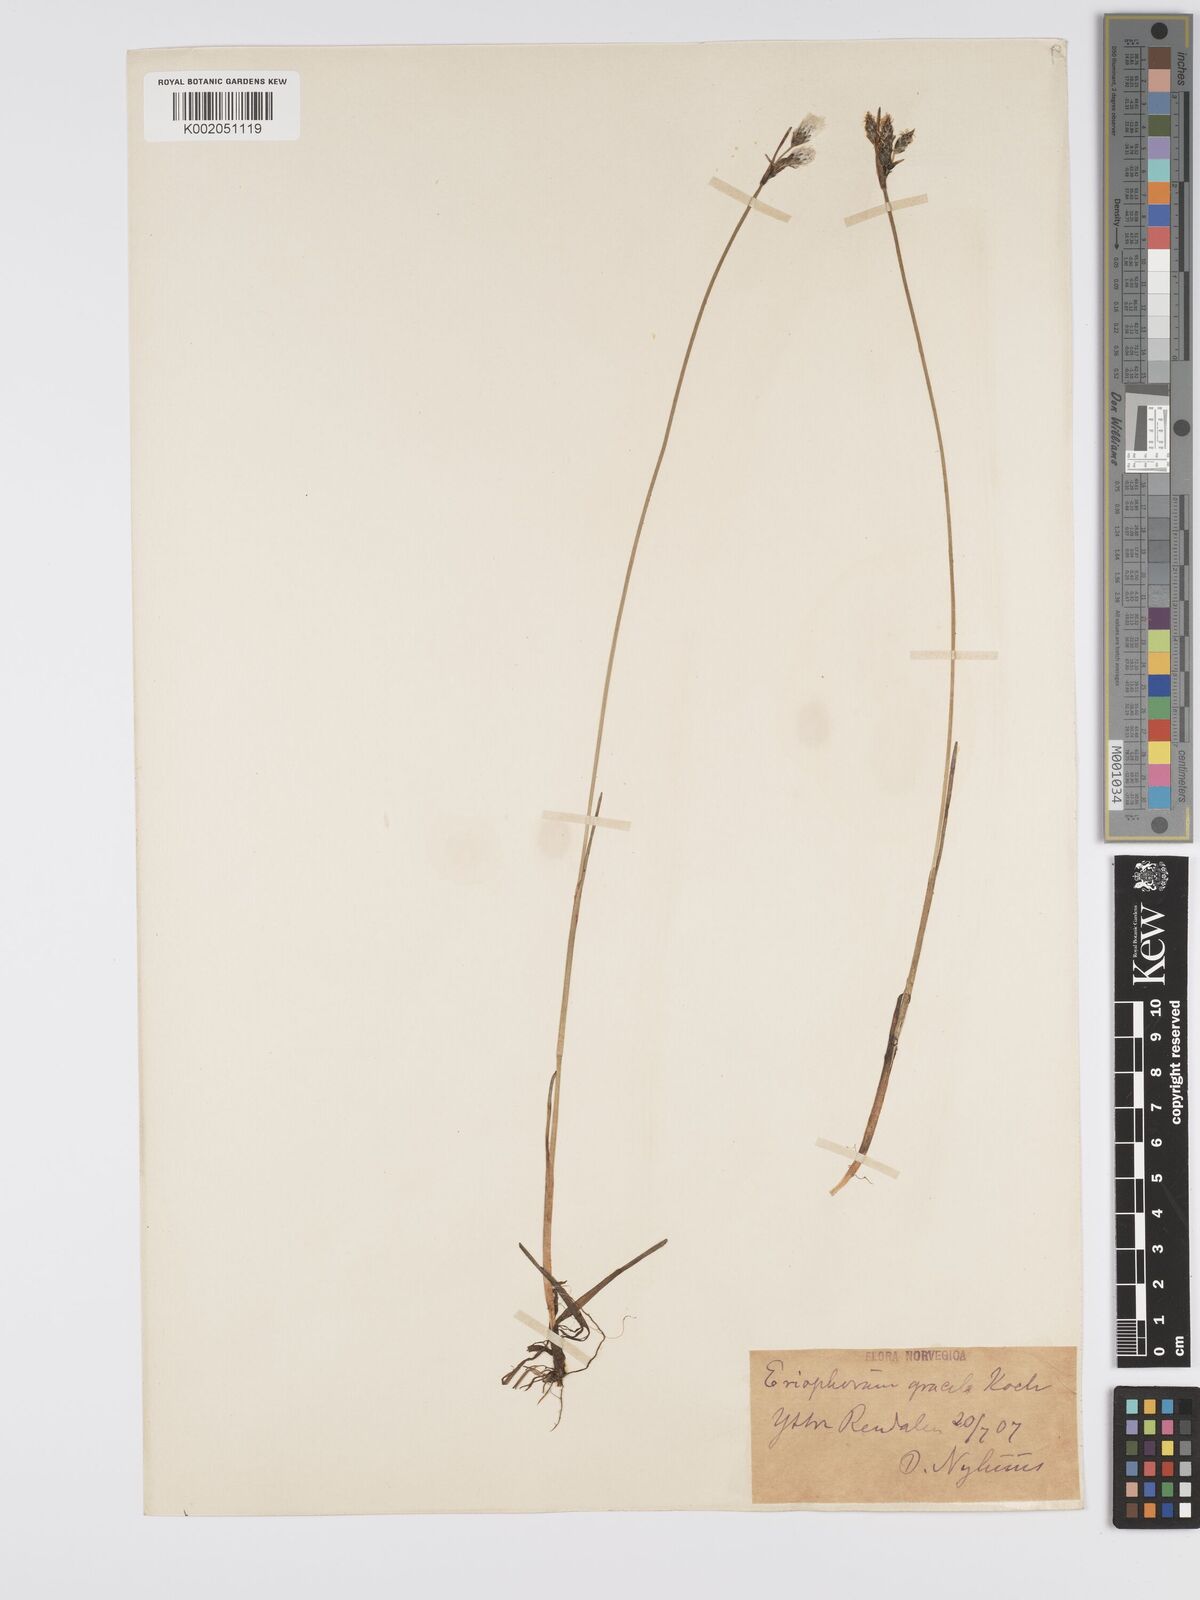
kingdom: Plantae
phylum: Tracheophyta
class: Liliopsida
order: Poales
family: Cyperaceae
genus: Eriophorum
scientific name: Eriophorum gracile
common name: Slender cottongrass
